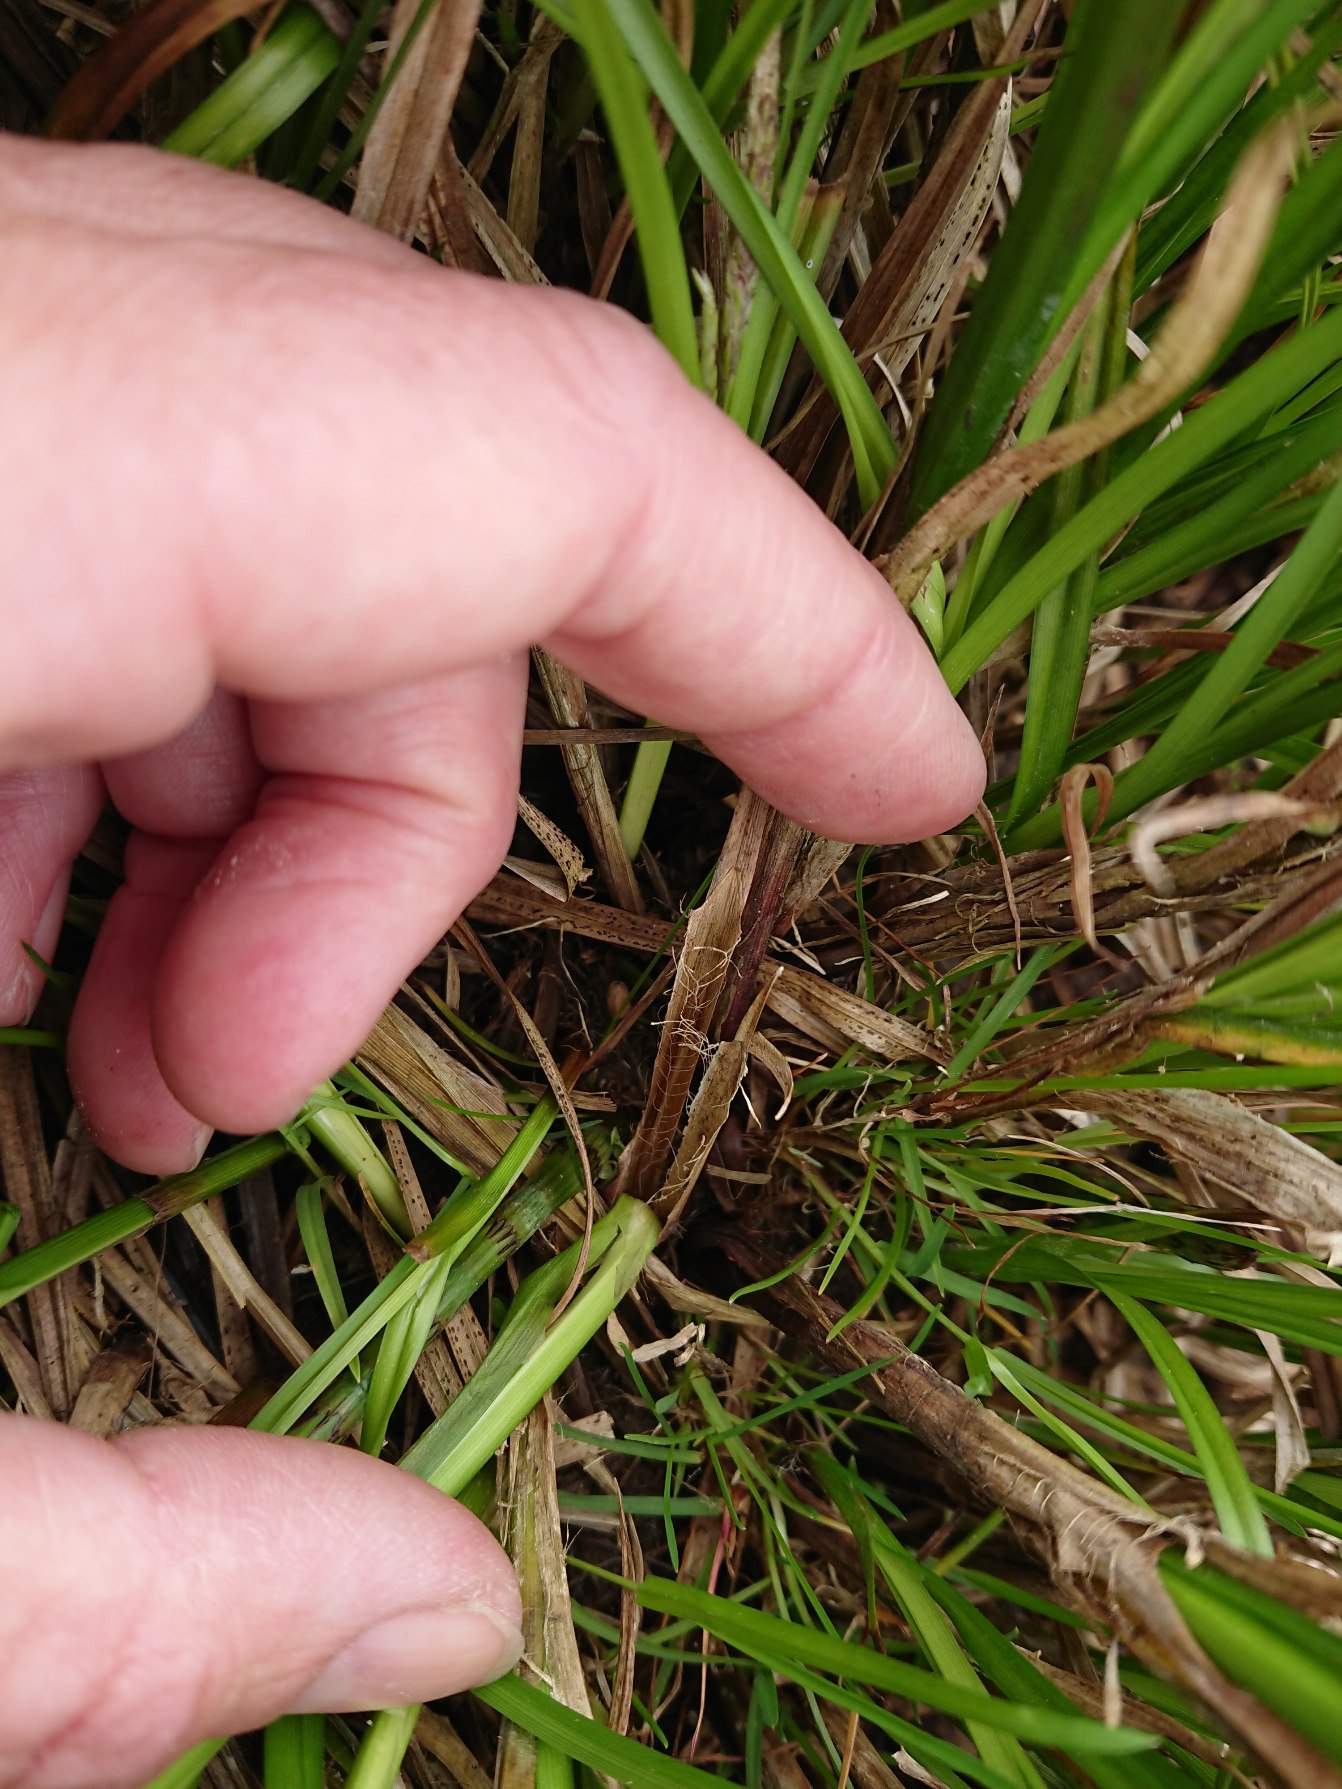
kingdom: Plantae
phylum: Tracheophyta
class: Liliopsida
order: Poales
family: Cyperaceae
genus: Carex
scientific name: Carex vesicaria
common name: Blære-star
